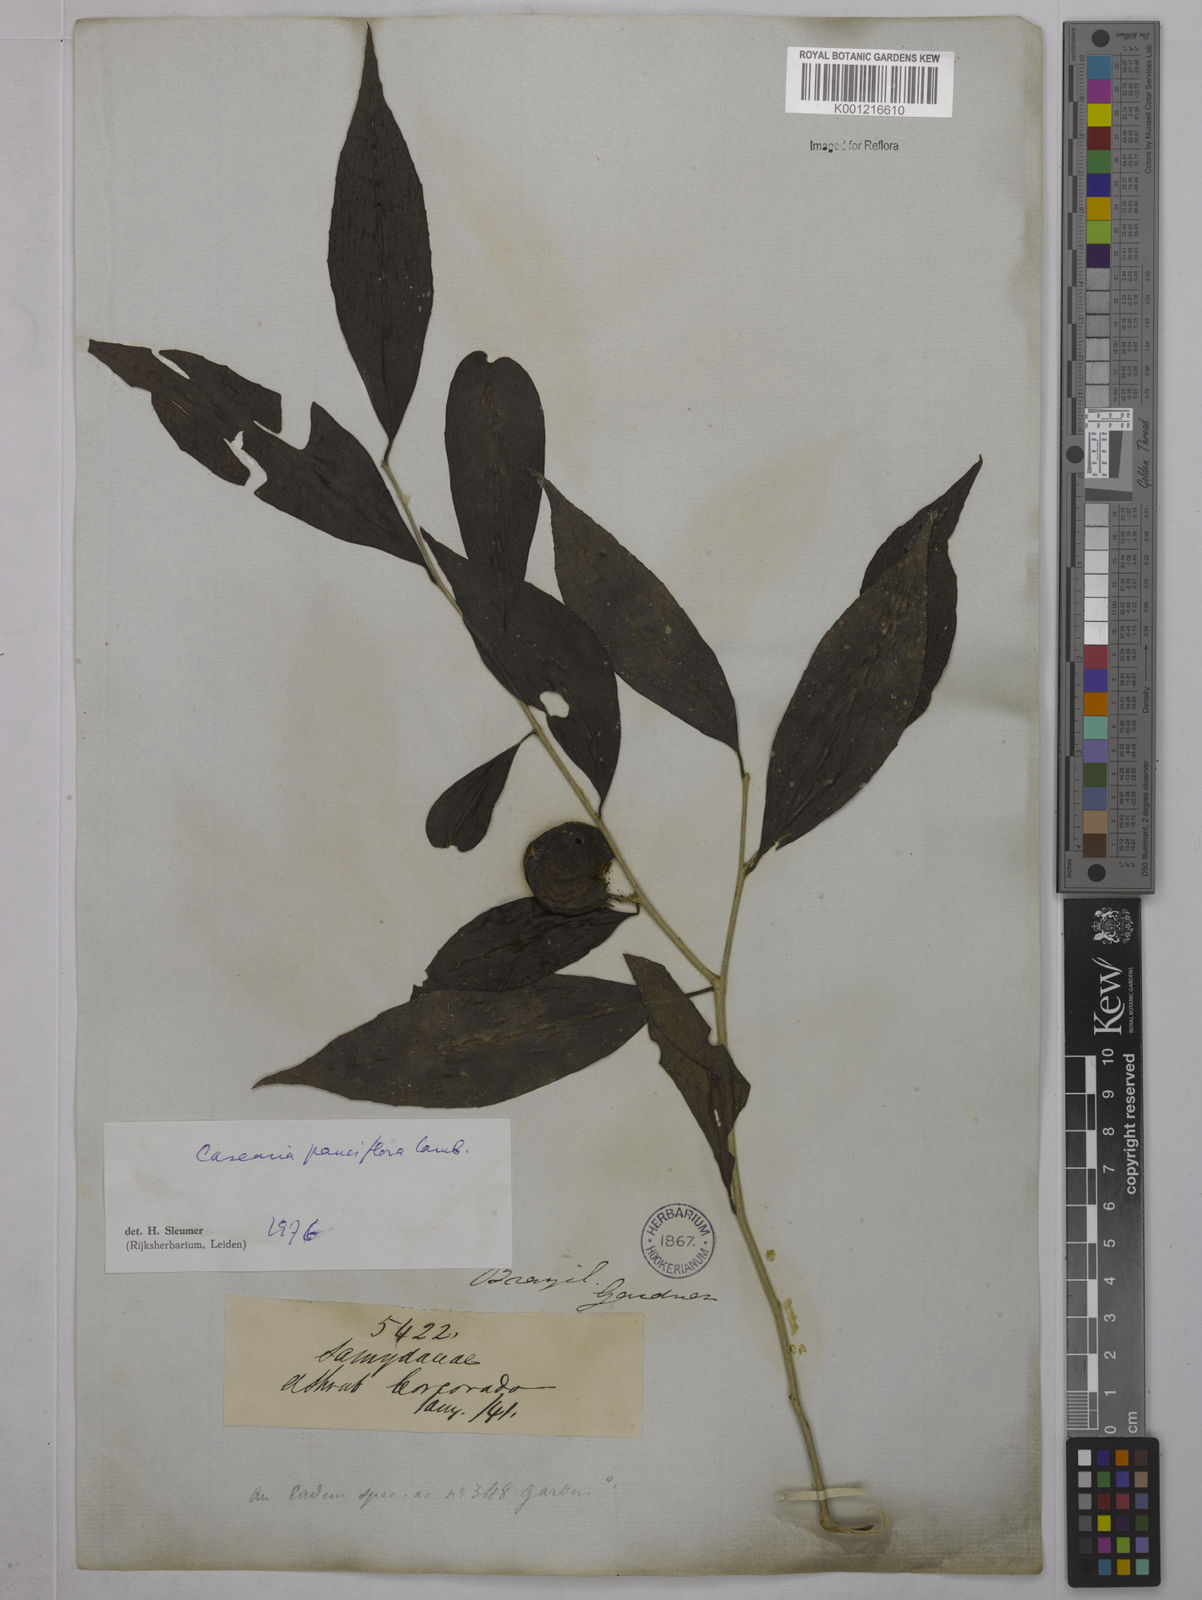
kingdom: Plantae
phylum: Tracheophyta
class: Magnoliopsida
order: Malpighiales
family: Salicaceae
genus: Casearia
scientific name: Casearia pauciflora
